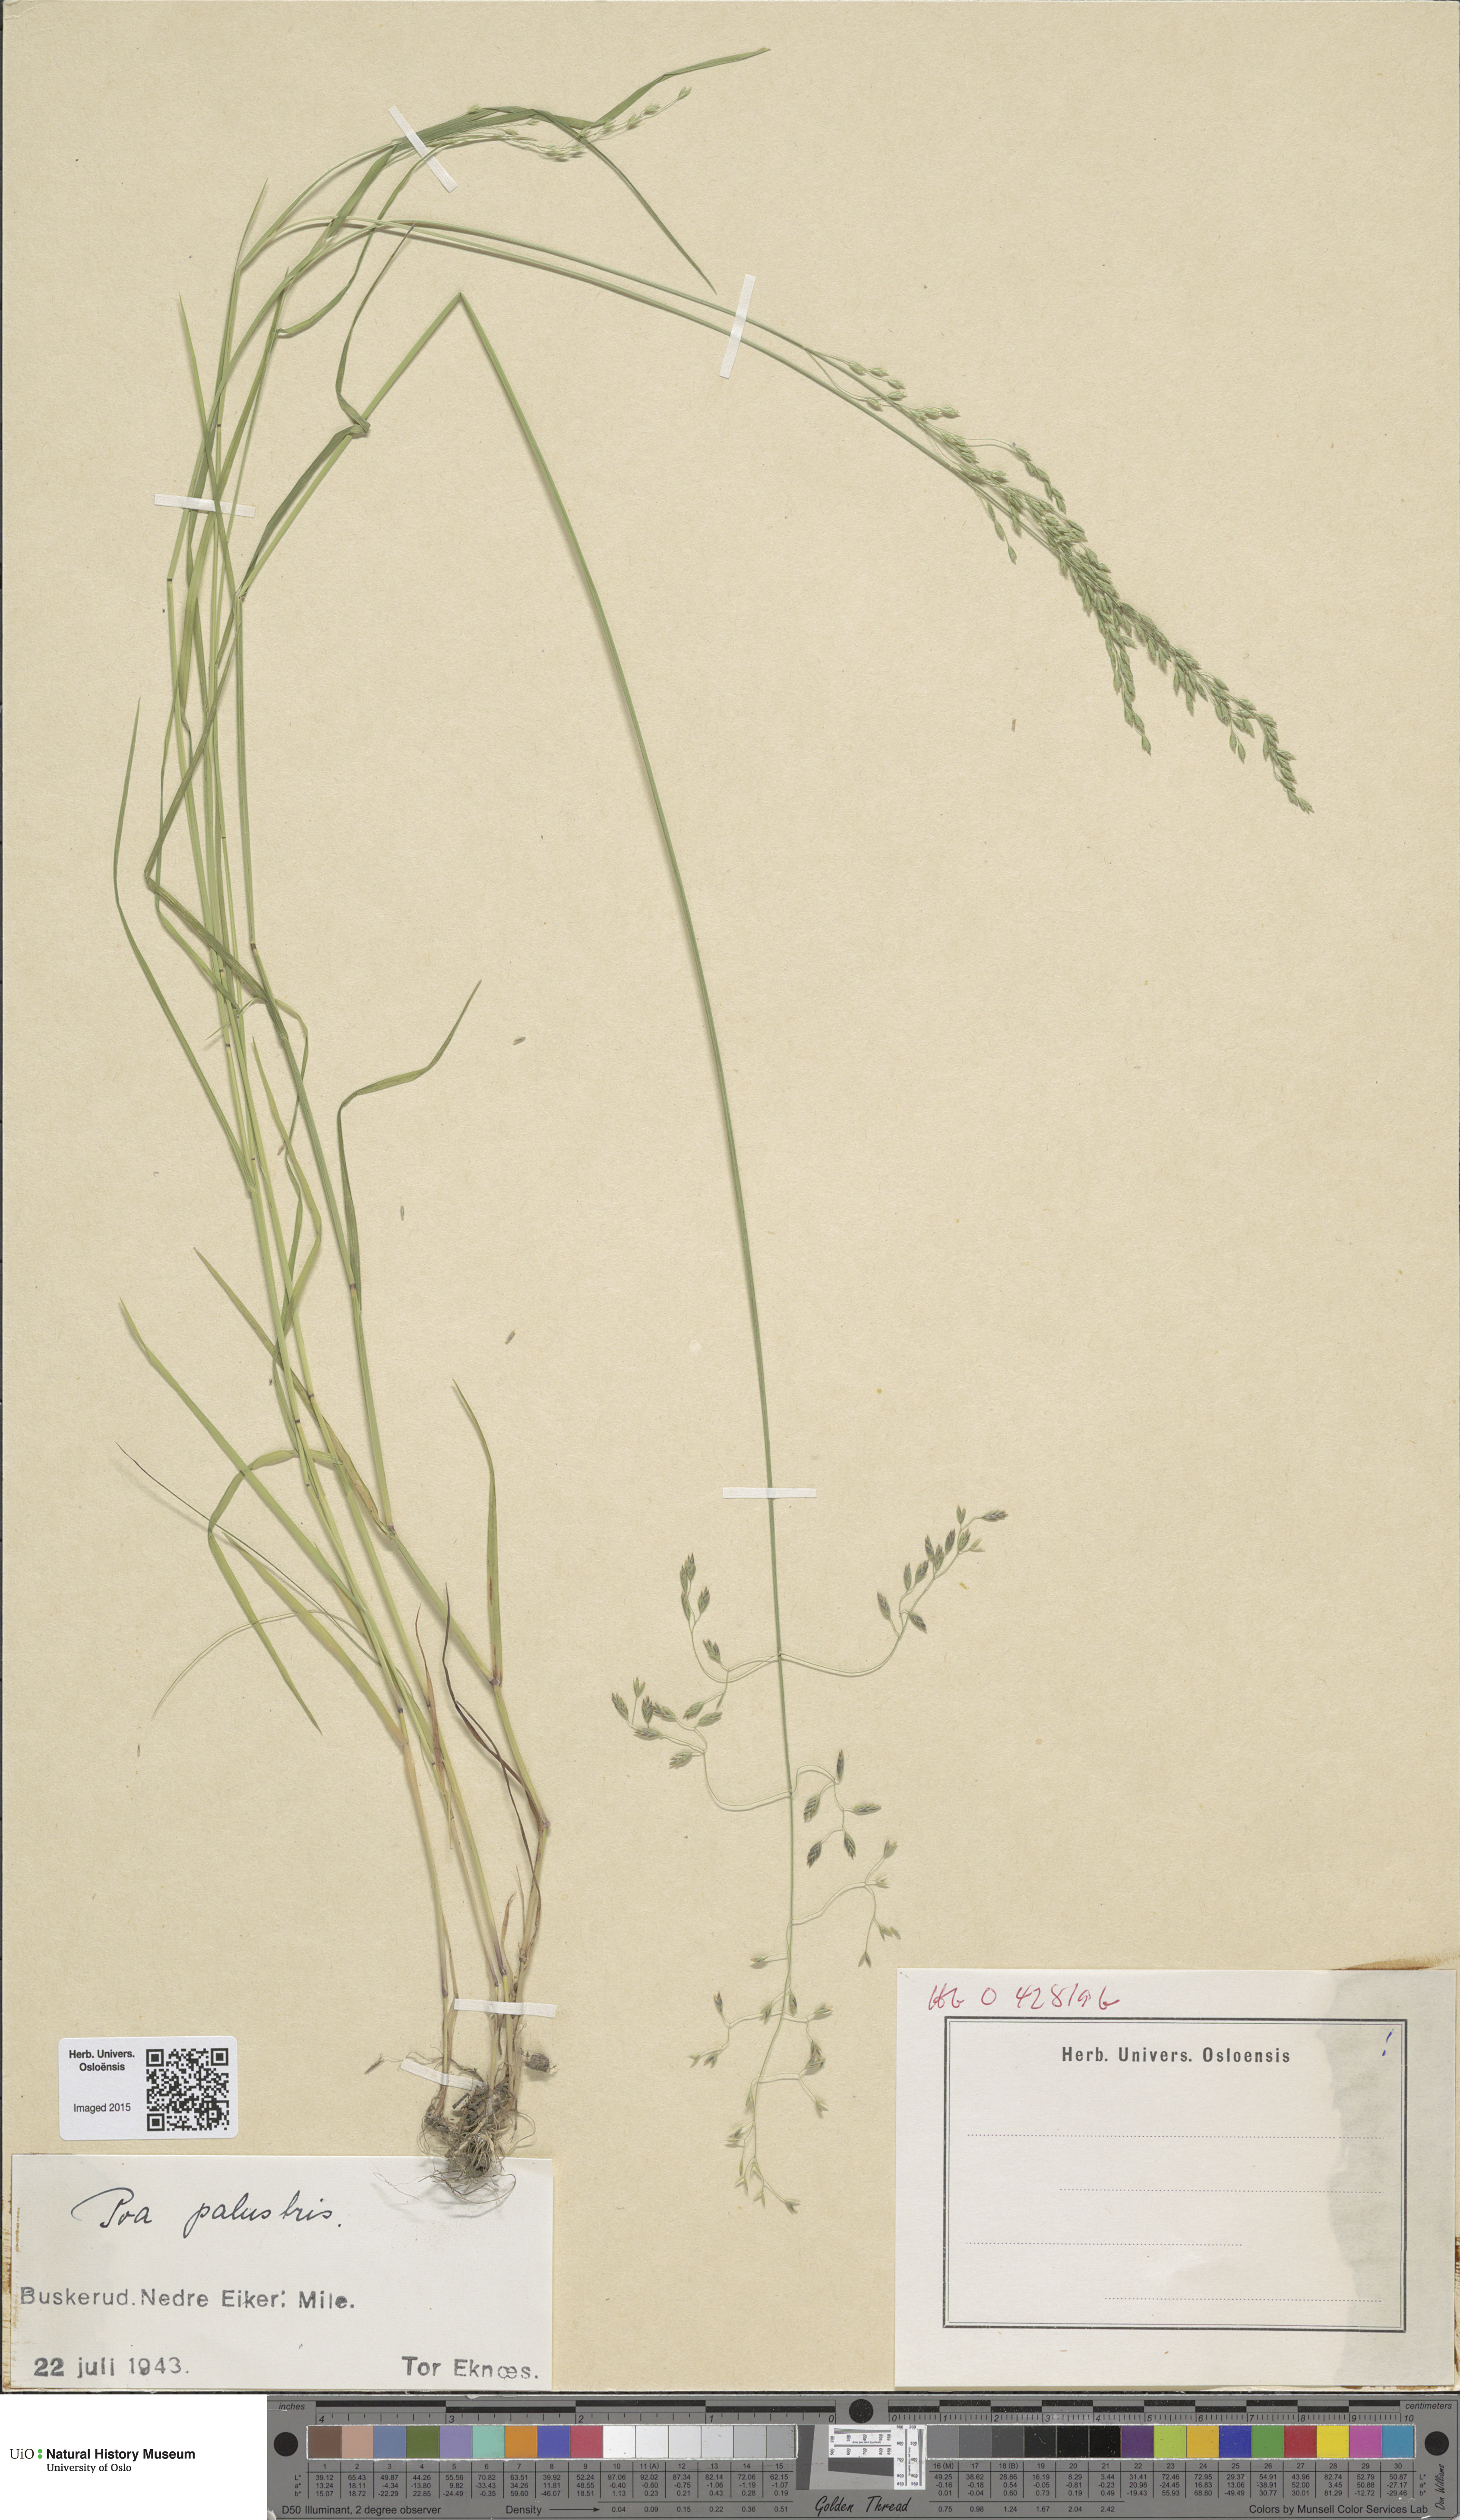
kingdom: Plantae
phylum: Tracheophyta
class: Liliopsida
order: Poales
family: Poaceae
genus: Poa
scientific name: Poa palustris
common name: Swamp meadow-grass
